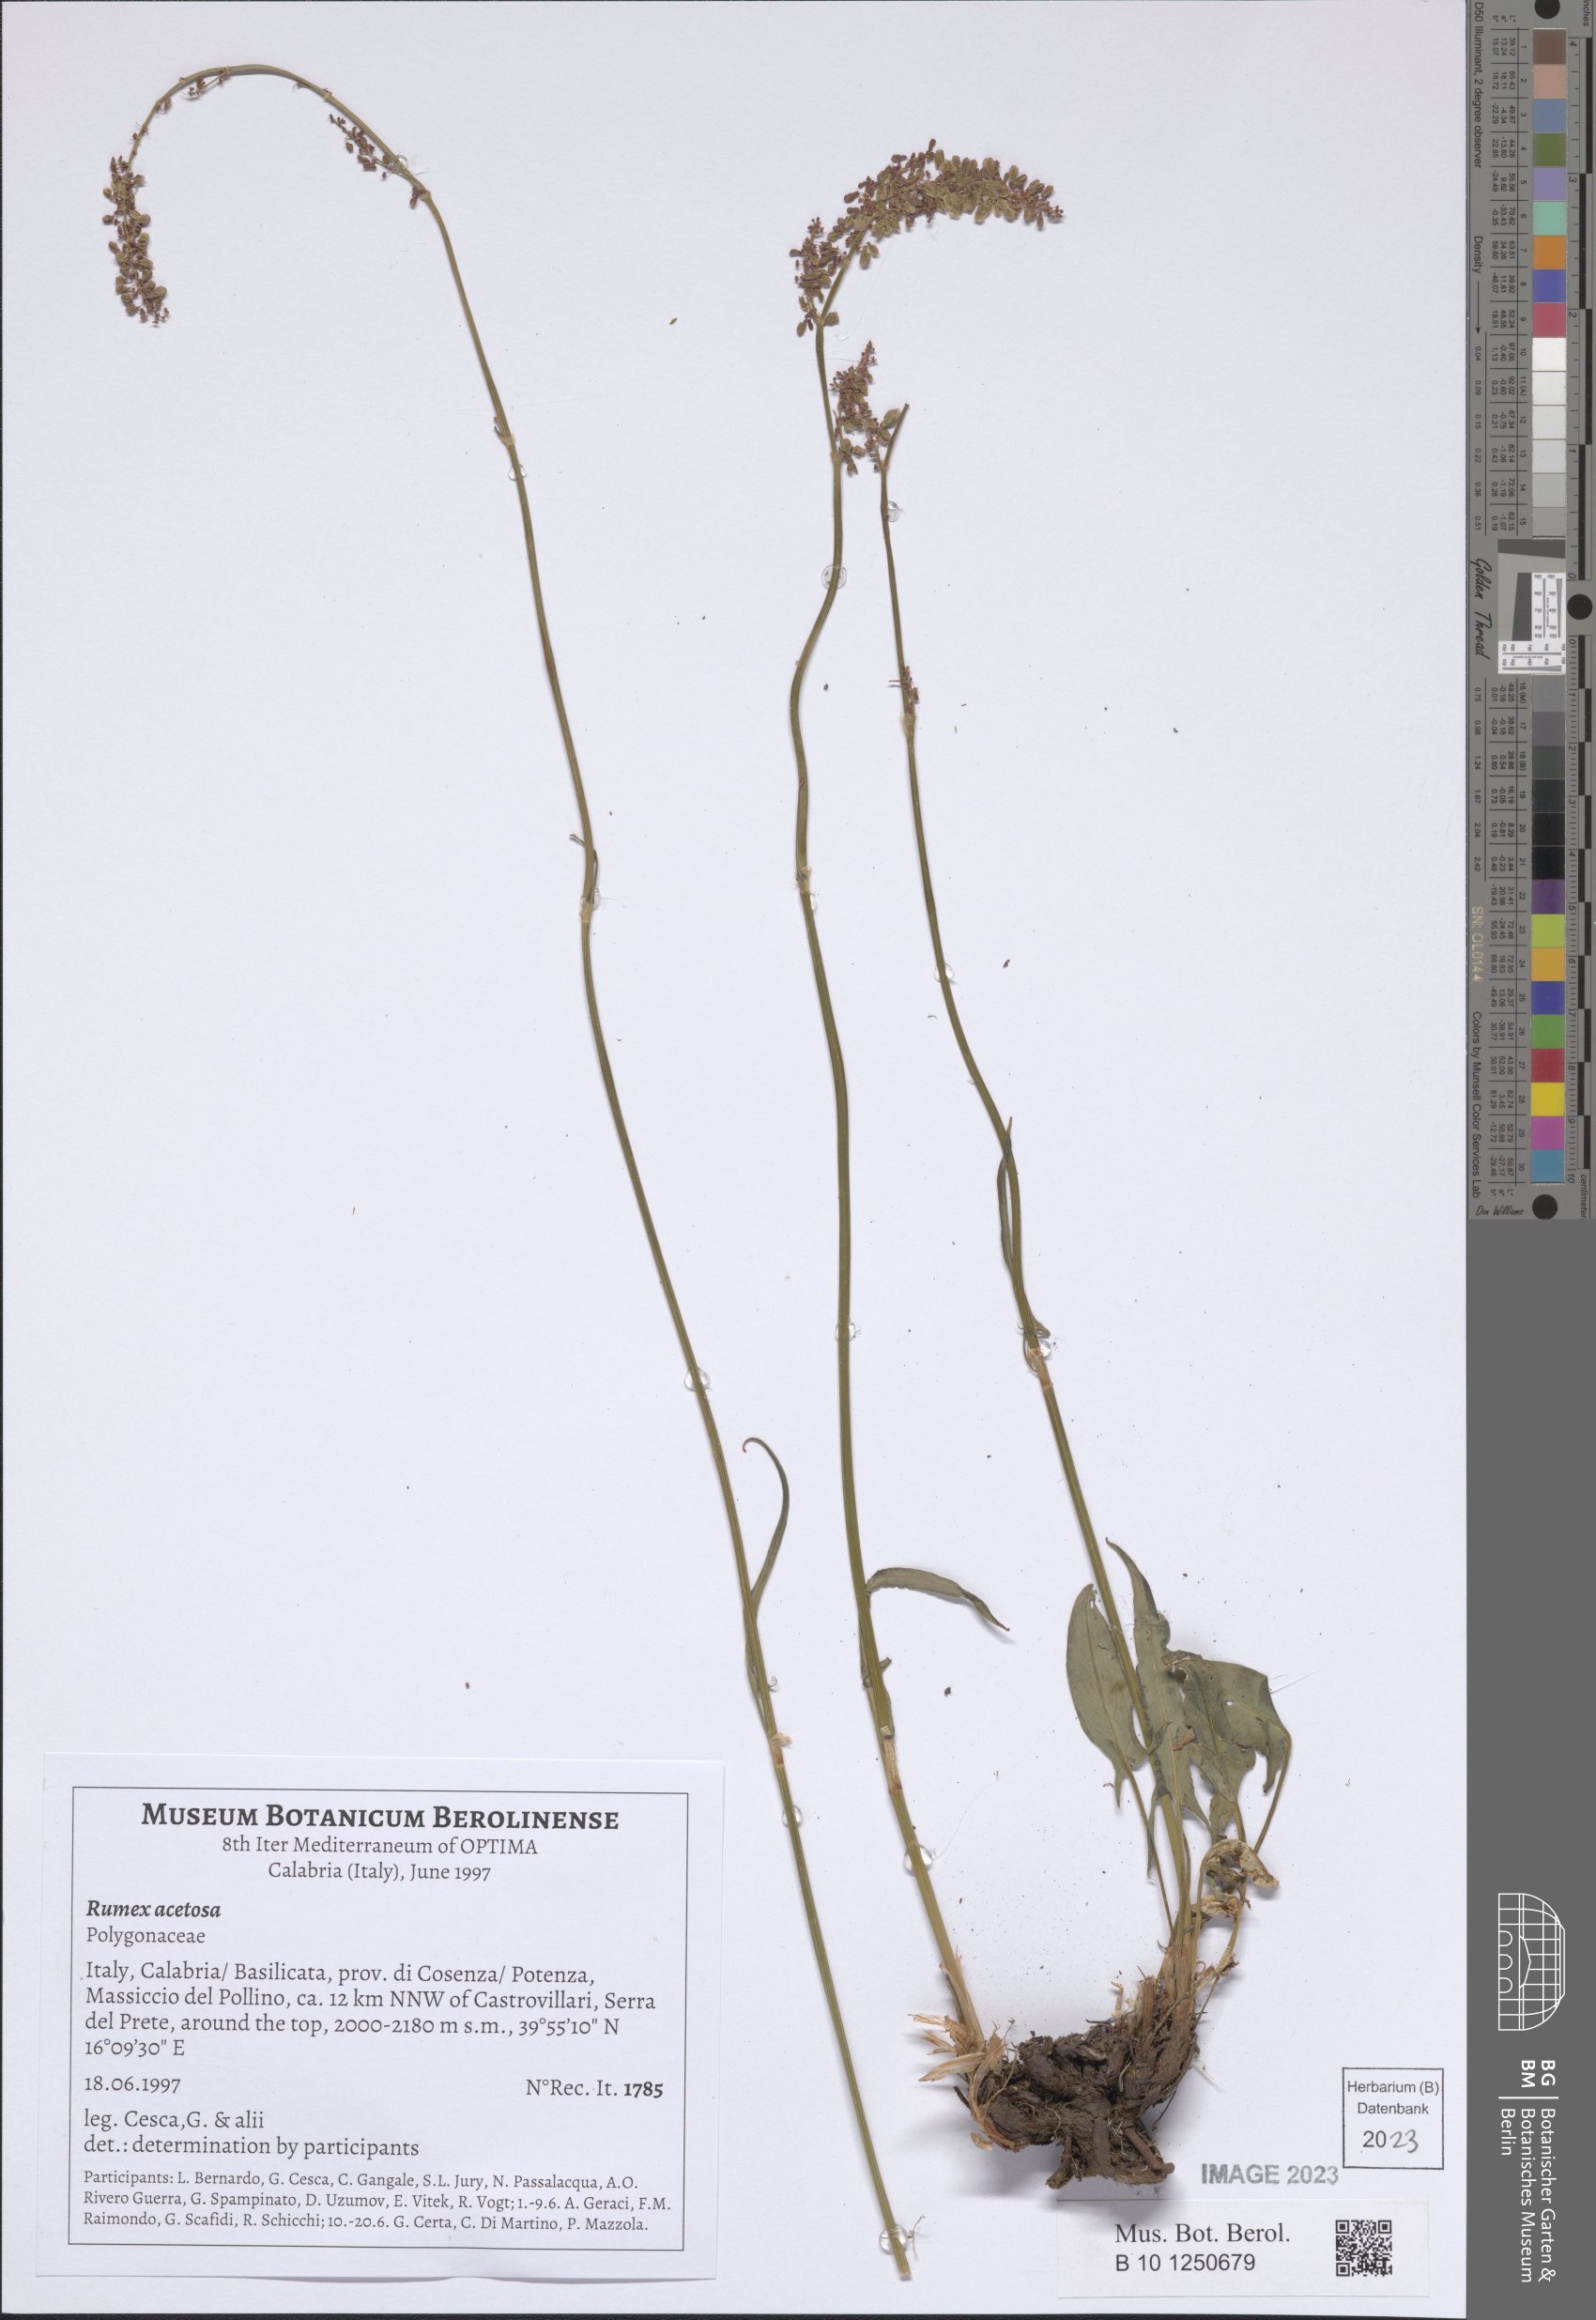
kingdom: Plantae
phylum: Tracheophyta
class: Magnoliopsida
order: Caryophyllales
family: Polygonaceae
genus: Rumex
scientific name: Rumex acetosa
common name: Garden sorrel
